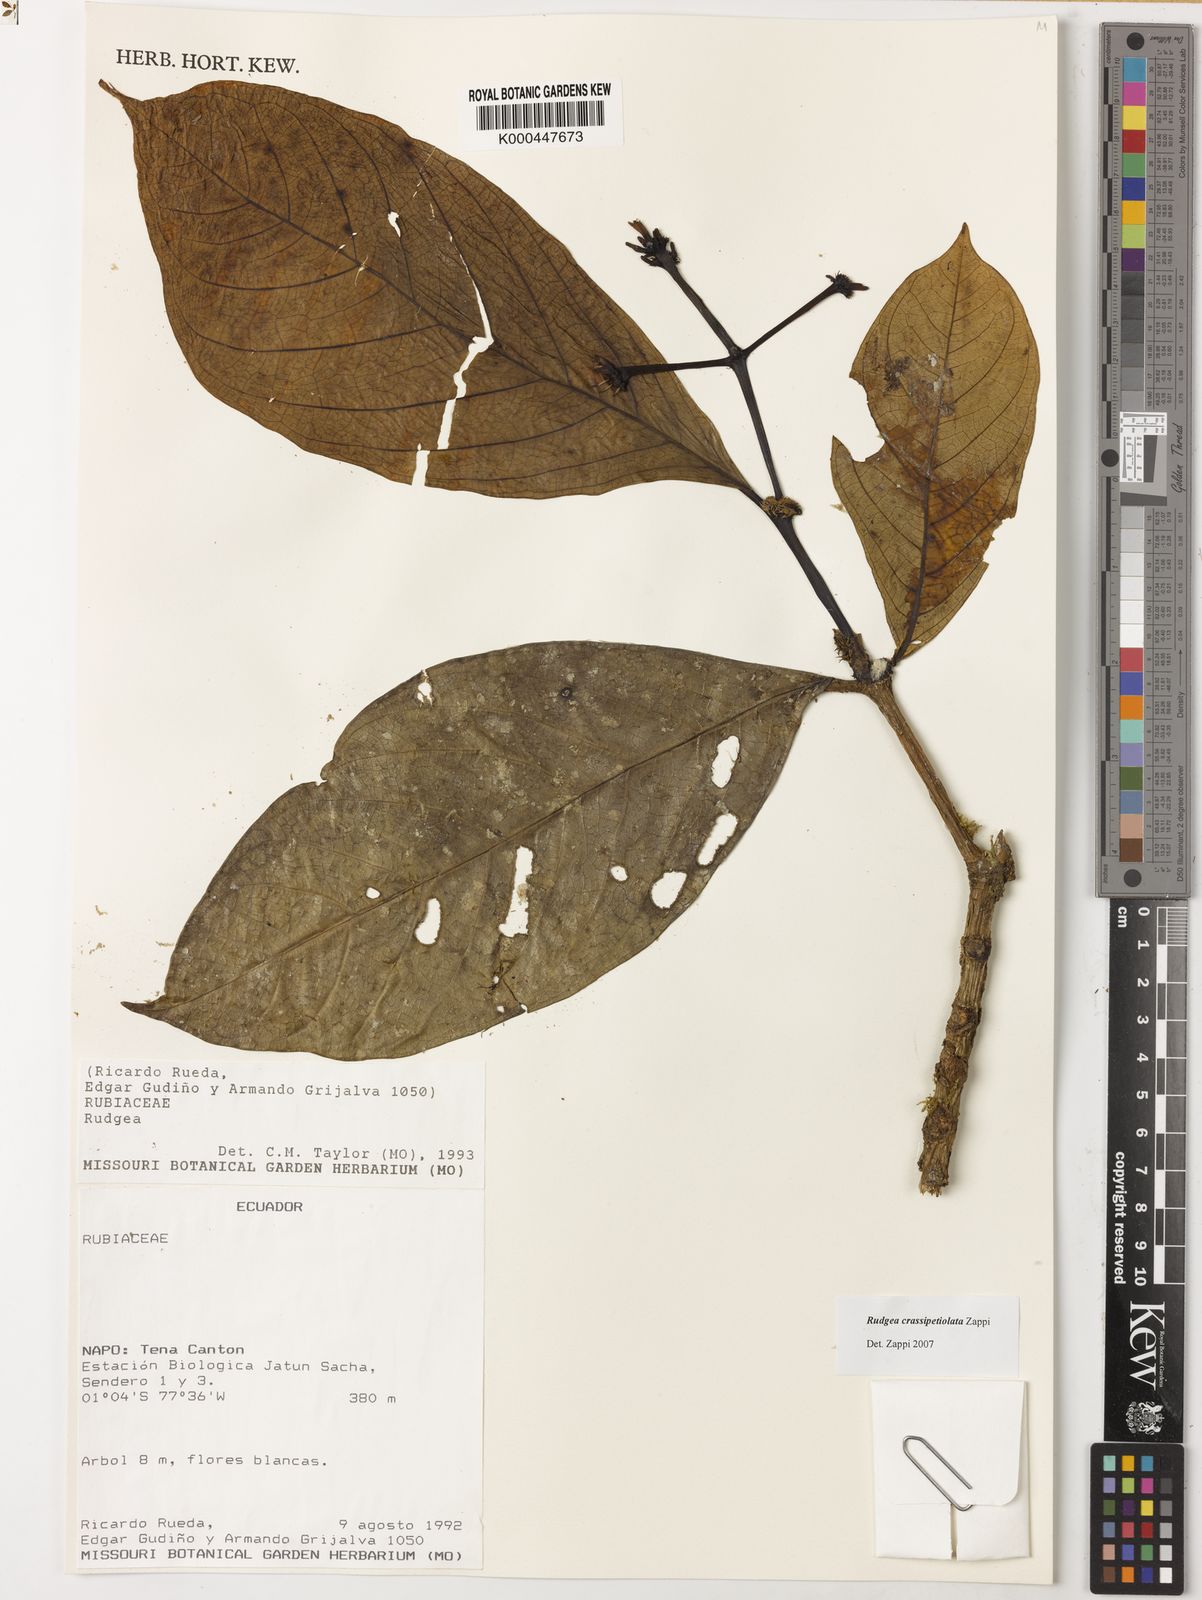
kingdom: Plantae
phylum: Tracheophyta
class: Magnoliopsida
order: Gentianales
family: Rubiaceae
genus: Rudgea
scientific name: Rudgea crassipetiolata
